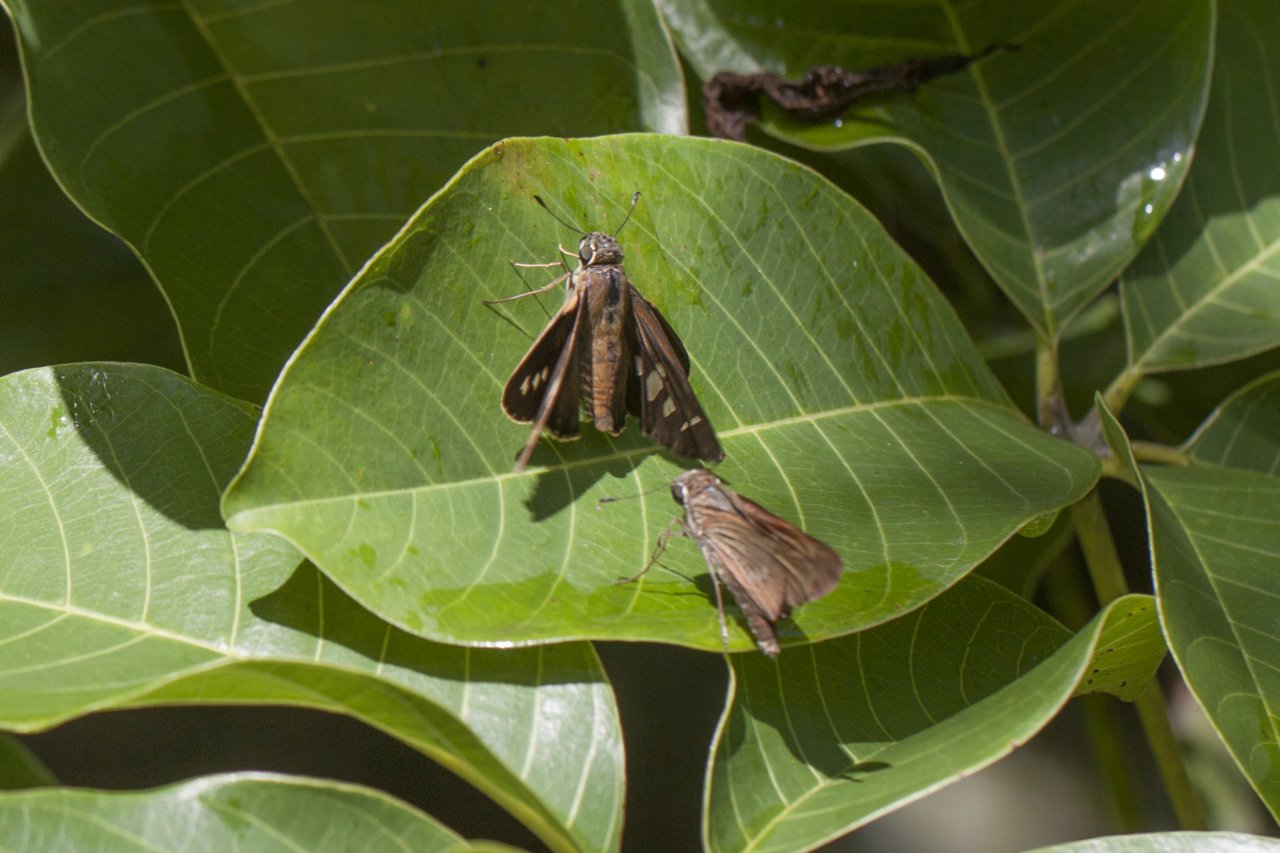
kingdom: Animalia
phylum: Arthropoda
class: Insecta
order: Lepidoptera
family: Hesperiidae
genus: Calpodes
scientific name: Calpodes ethlius
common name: Brazilian Skipper
